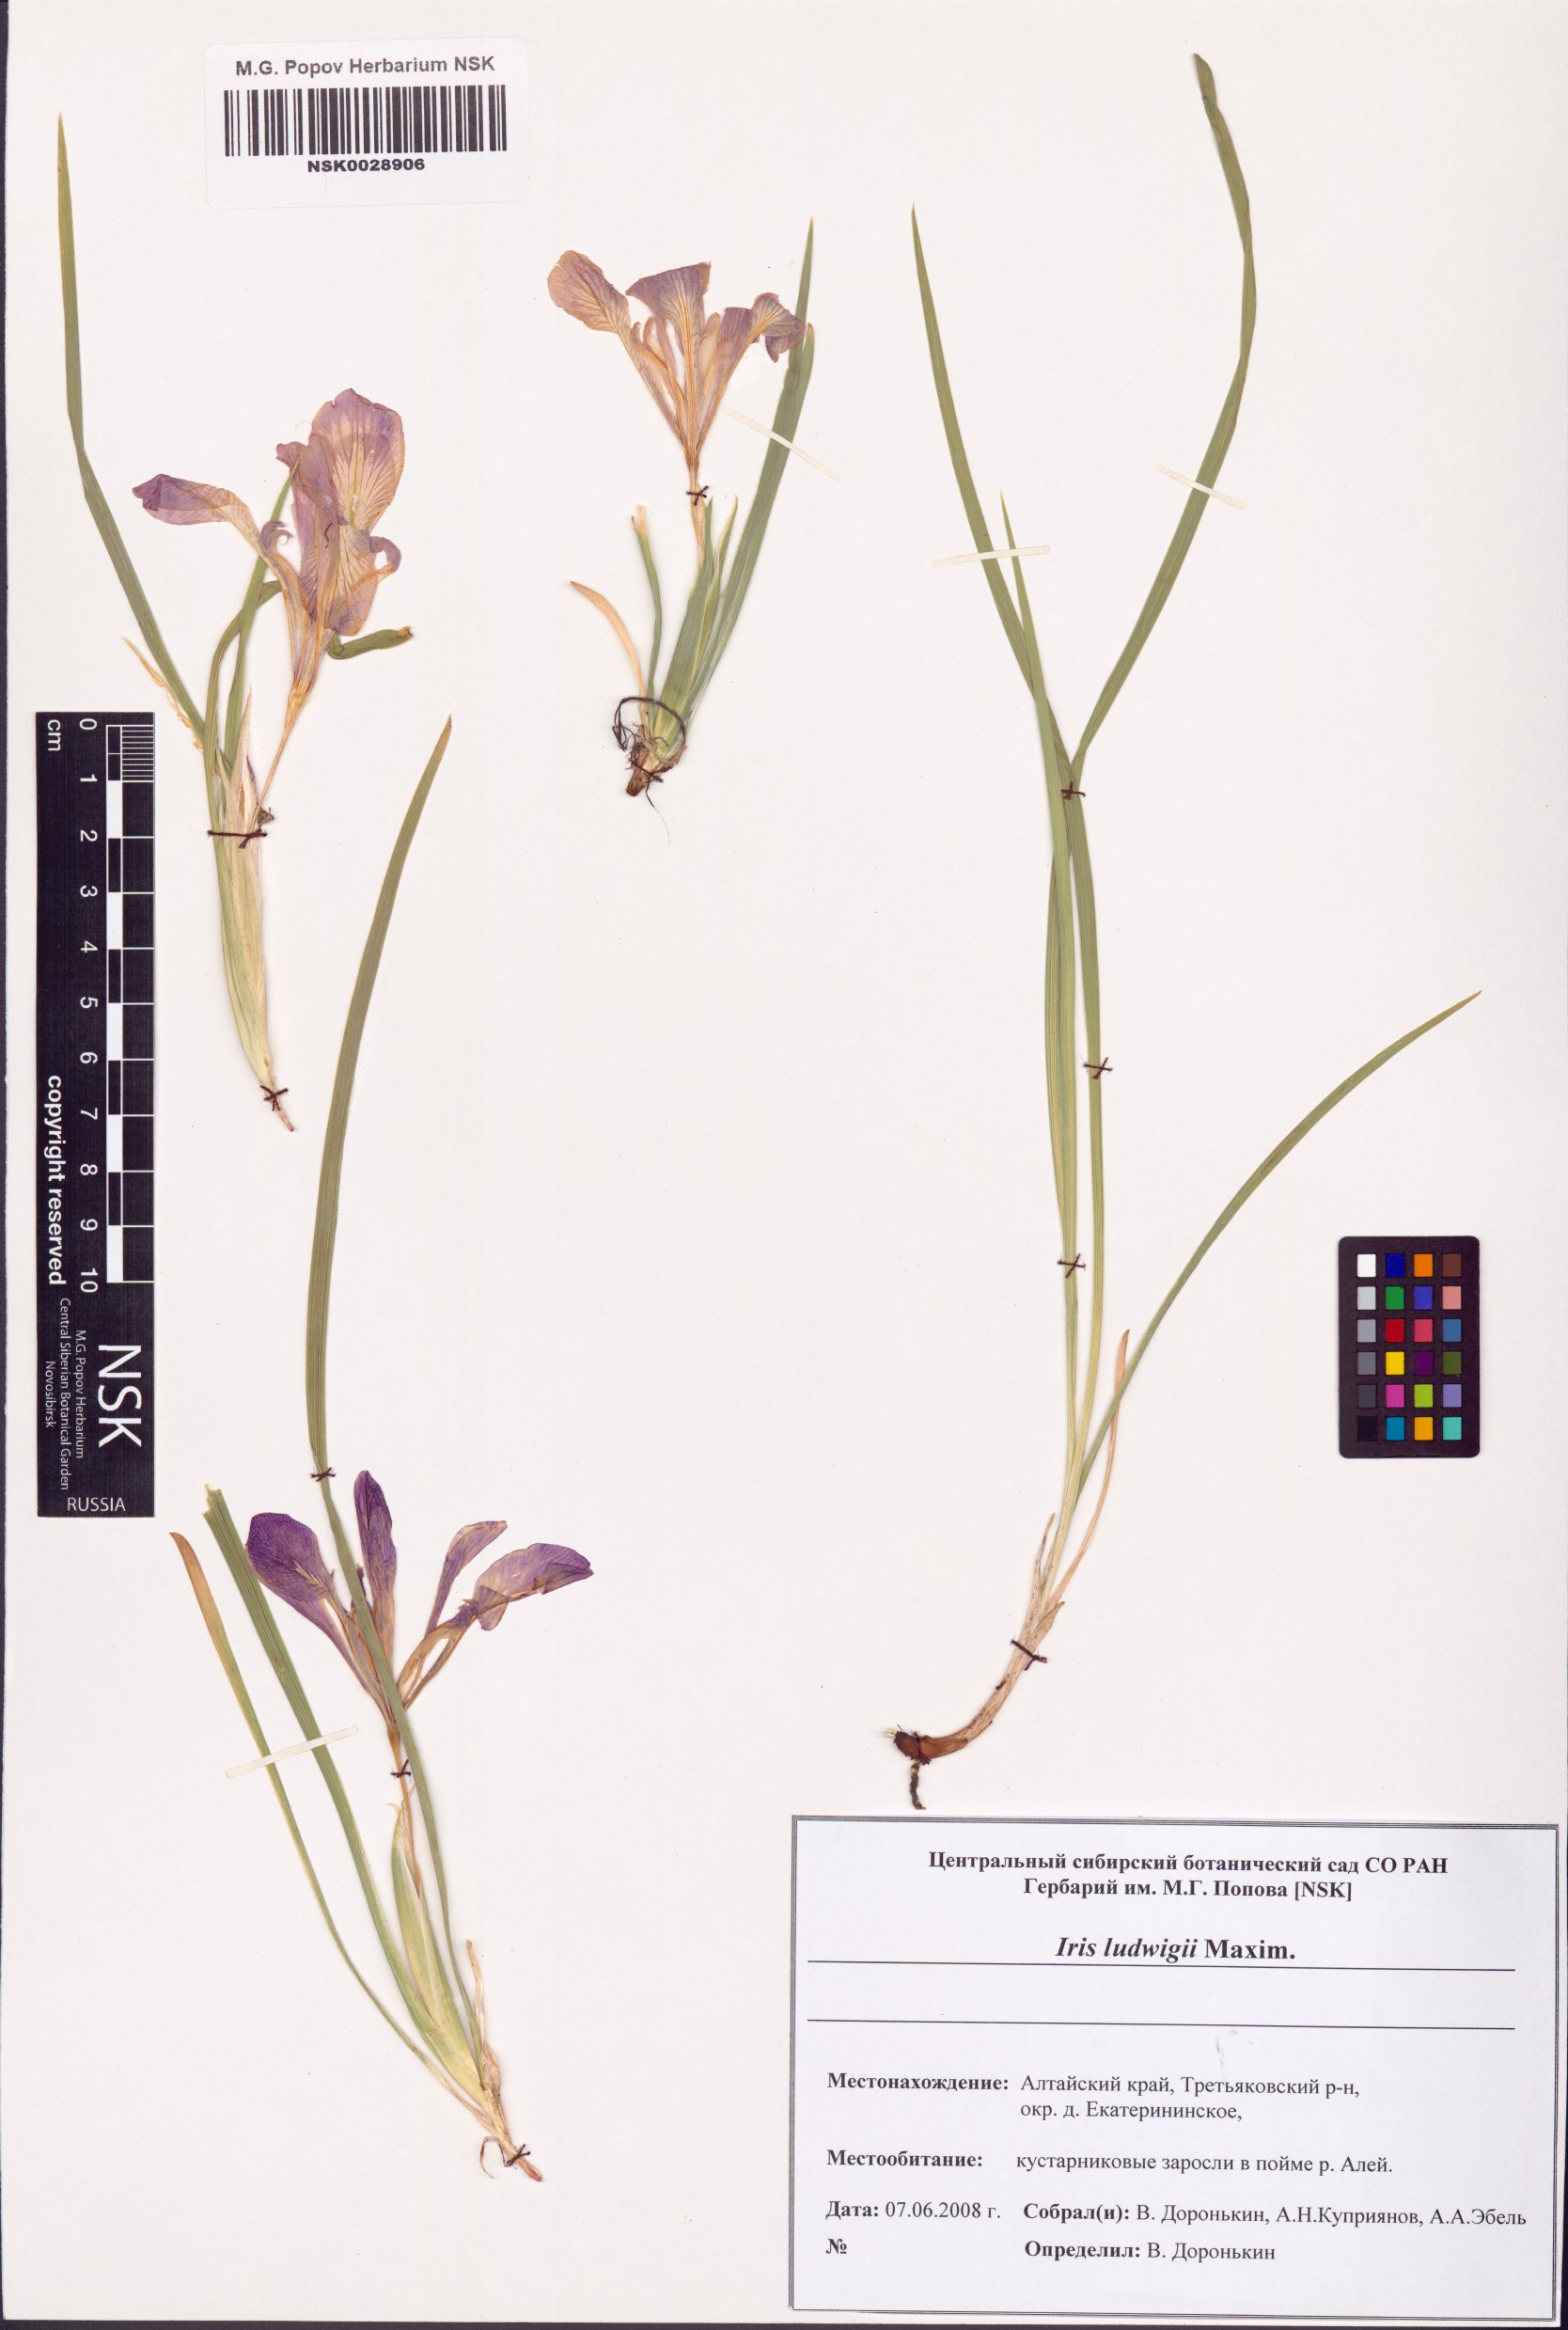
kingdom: Plantae
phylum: Tracheophyta
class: Liliopsida
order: Asparagales
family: Iridaceae
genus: Iris
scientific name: Iris ludwigii
